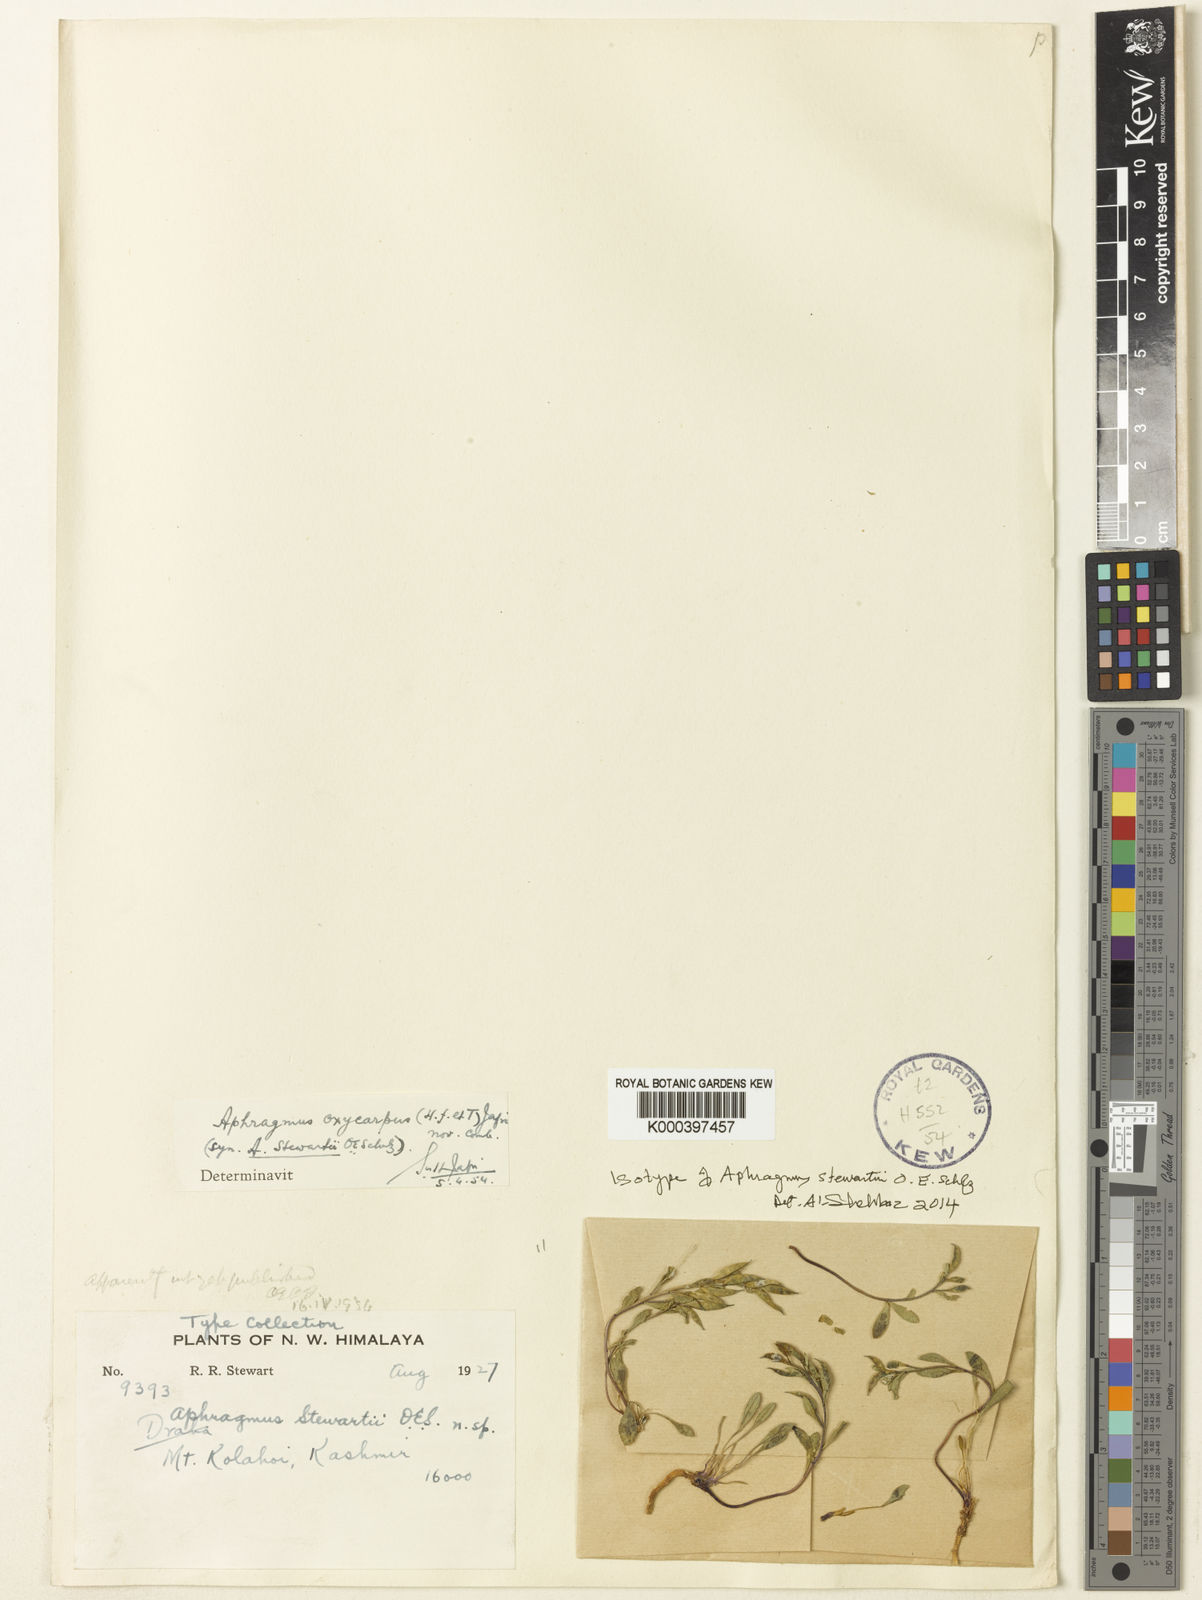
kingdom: Plantae
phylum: Tracheophyta
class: Magnoliopsida
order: Brassicales
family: Brassicaceae
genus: Aphragmus
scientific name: Aphragmus oxycarpus
